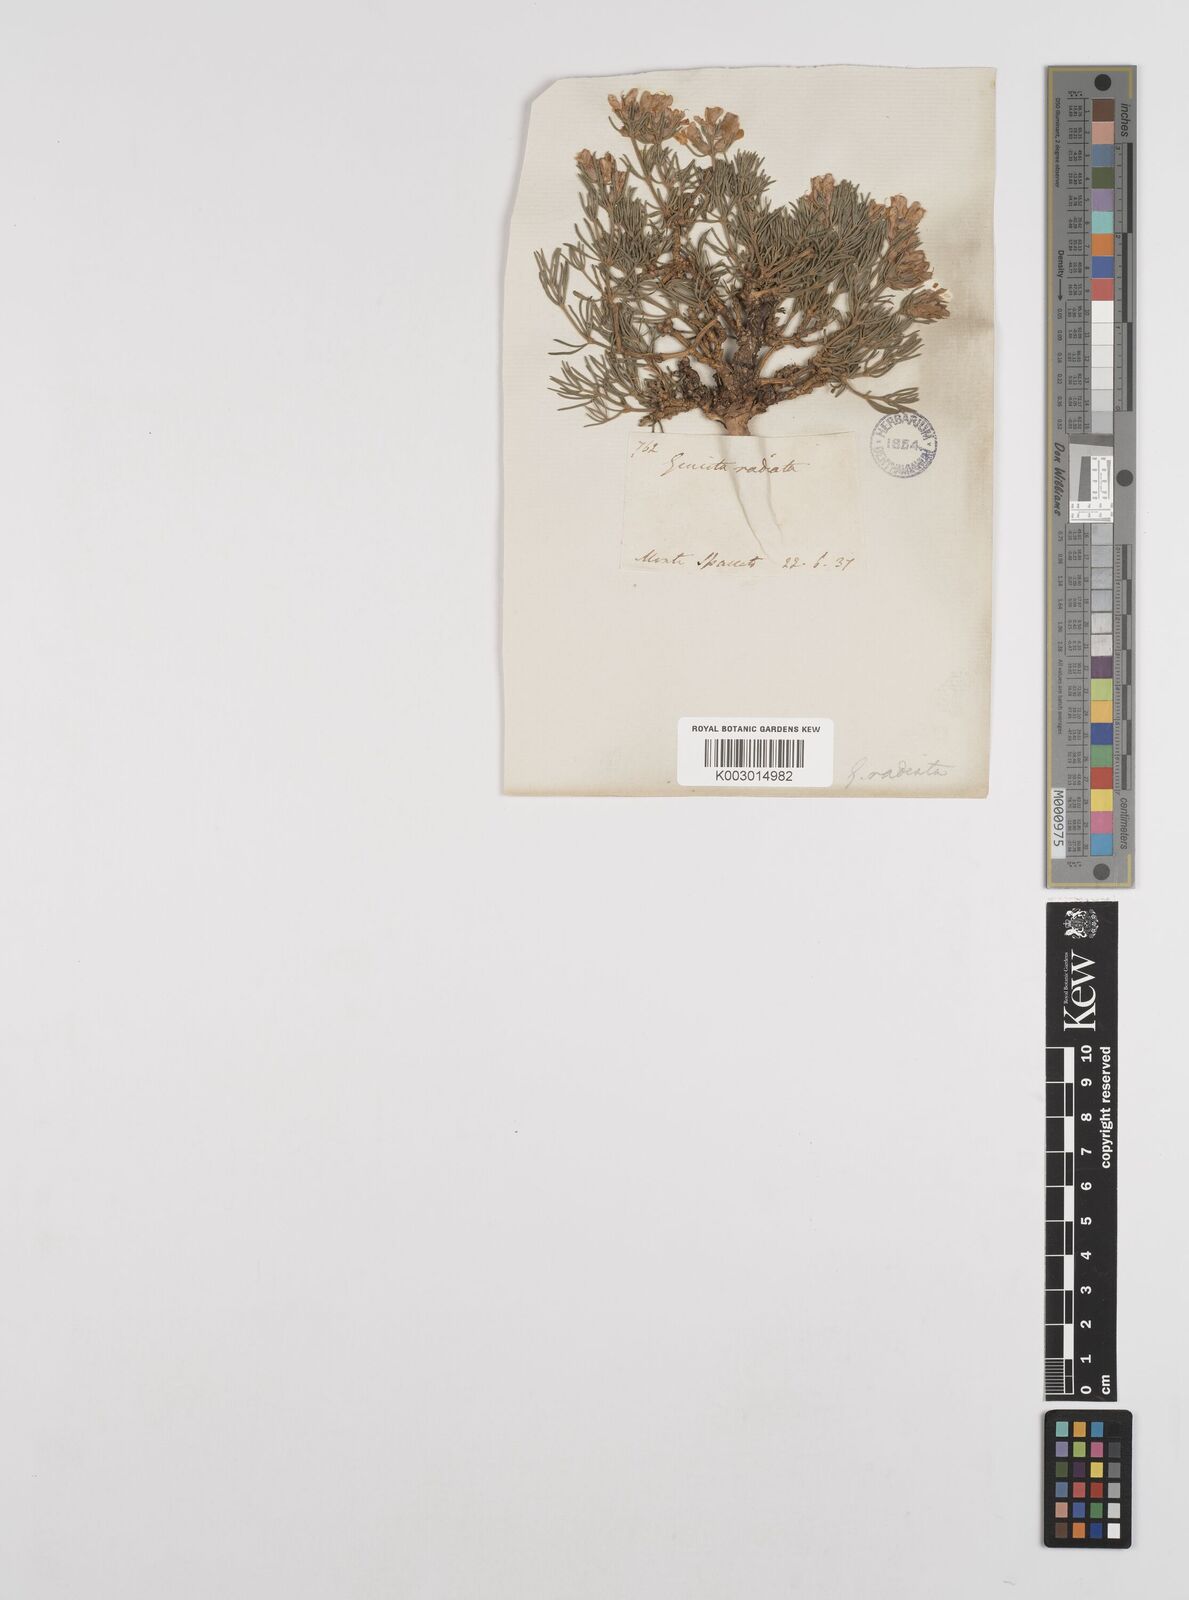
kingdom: Plantae
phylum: Tracheophyta
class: Magnoliopsida
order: Fabales
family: Fabaceae
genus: Genista
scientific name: Genista radiata
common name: Southern greenweed
